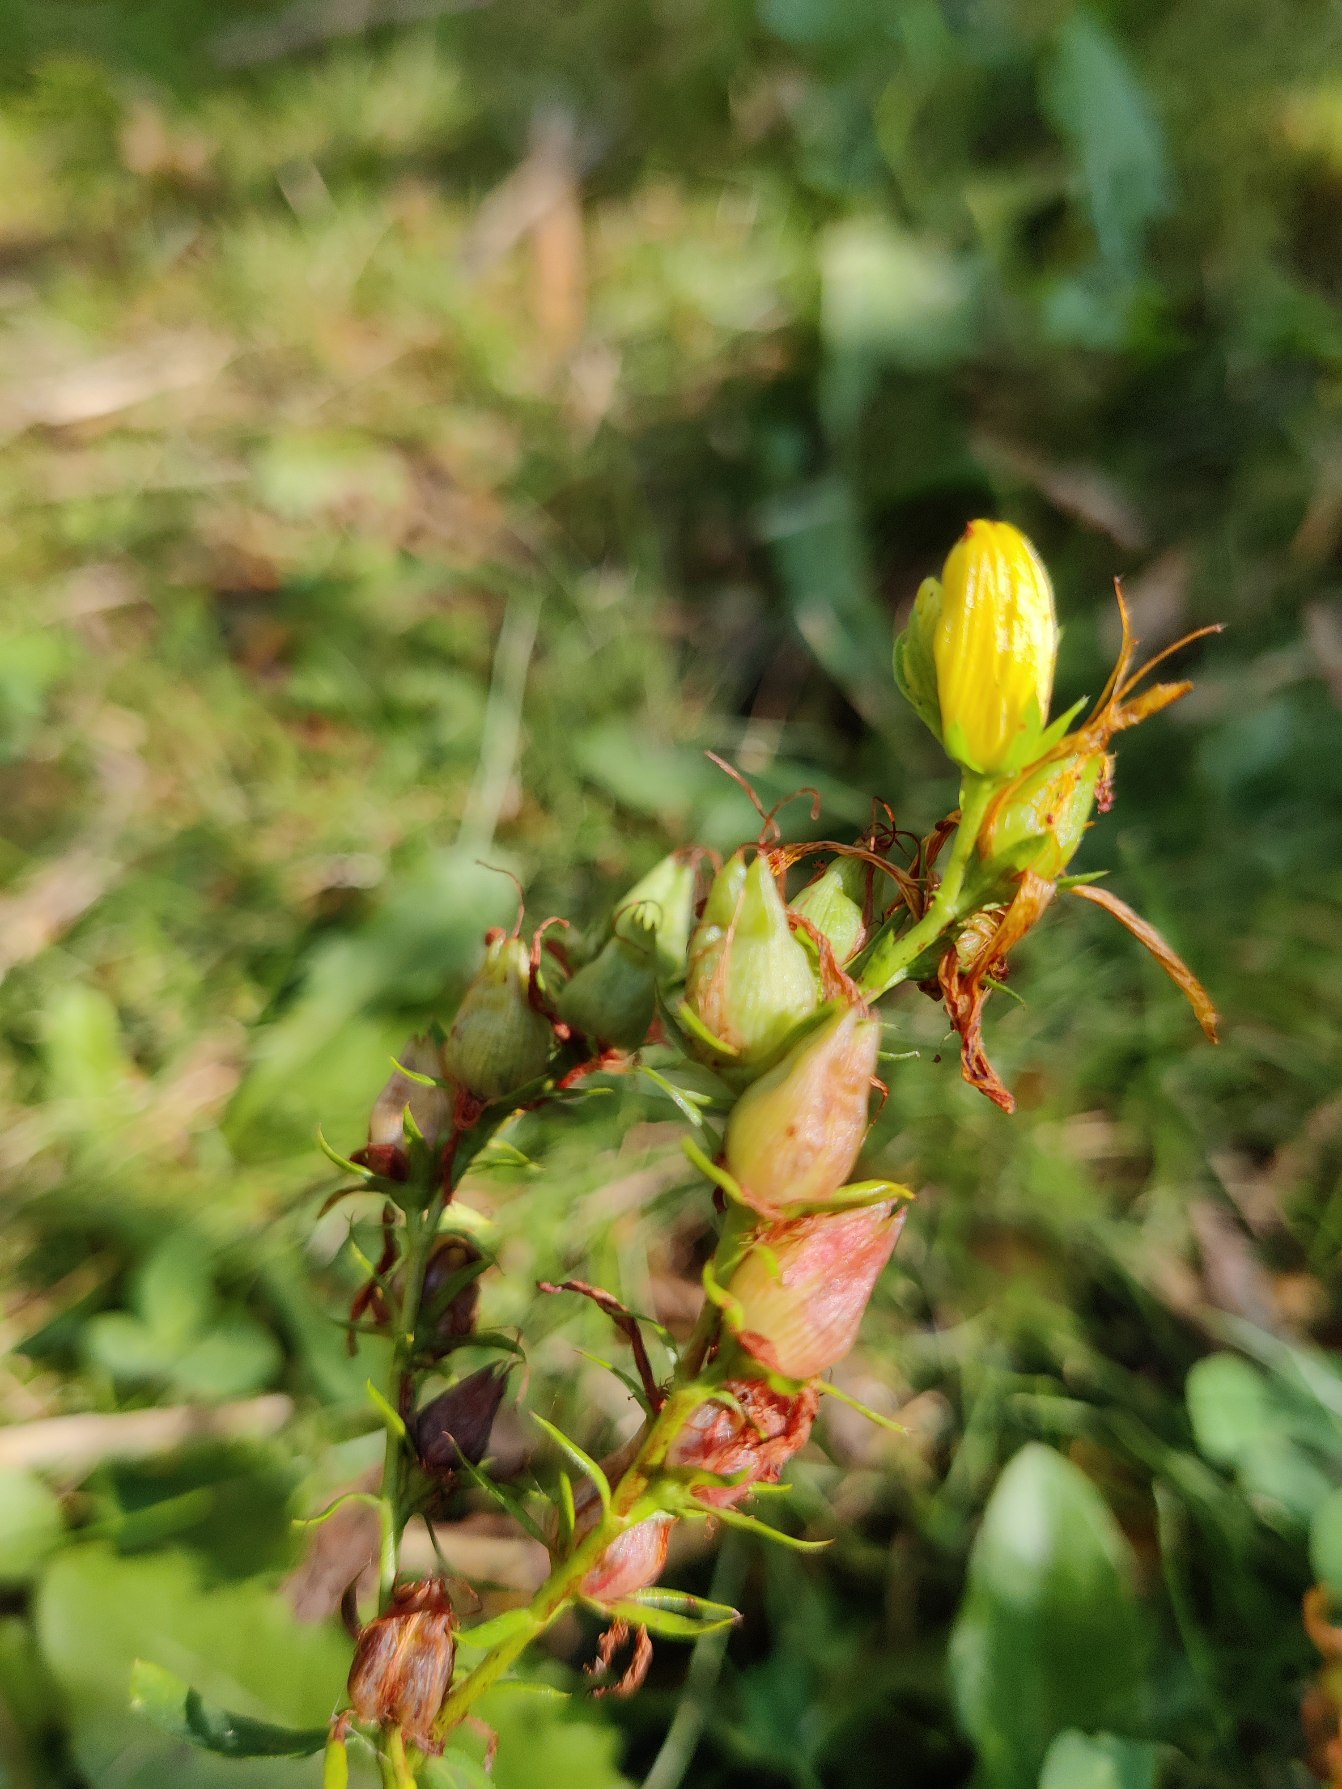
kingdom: Plantae
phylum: Tracheophyta
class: Magnoliopsida
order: Malpighiales
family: Hypericaceae
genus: Hypericum
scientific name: Hypericum perforatum
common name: Prikbladet perikon
